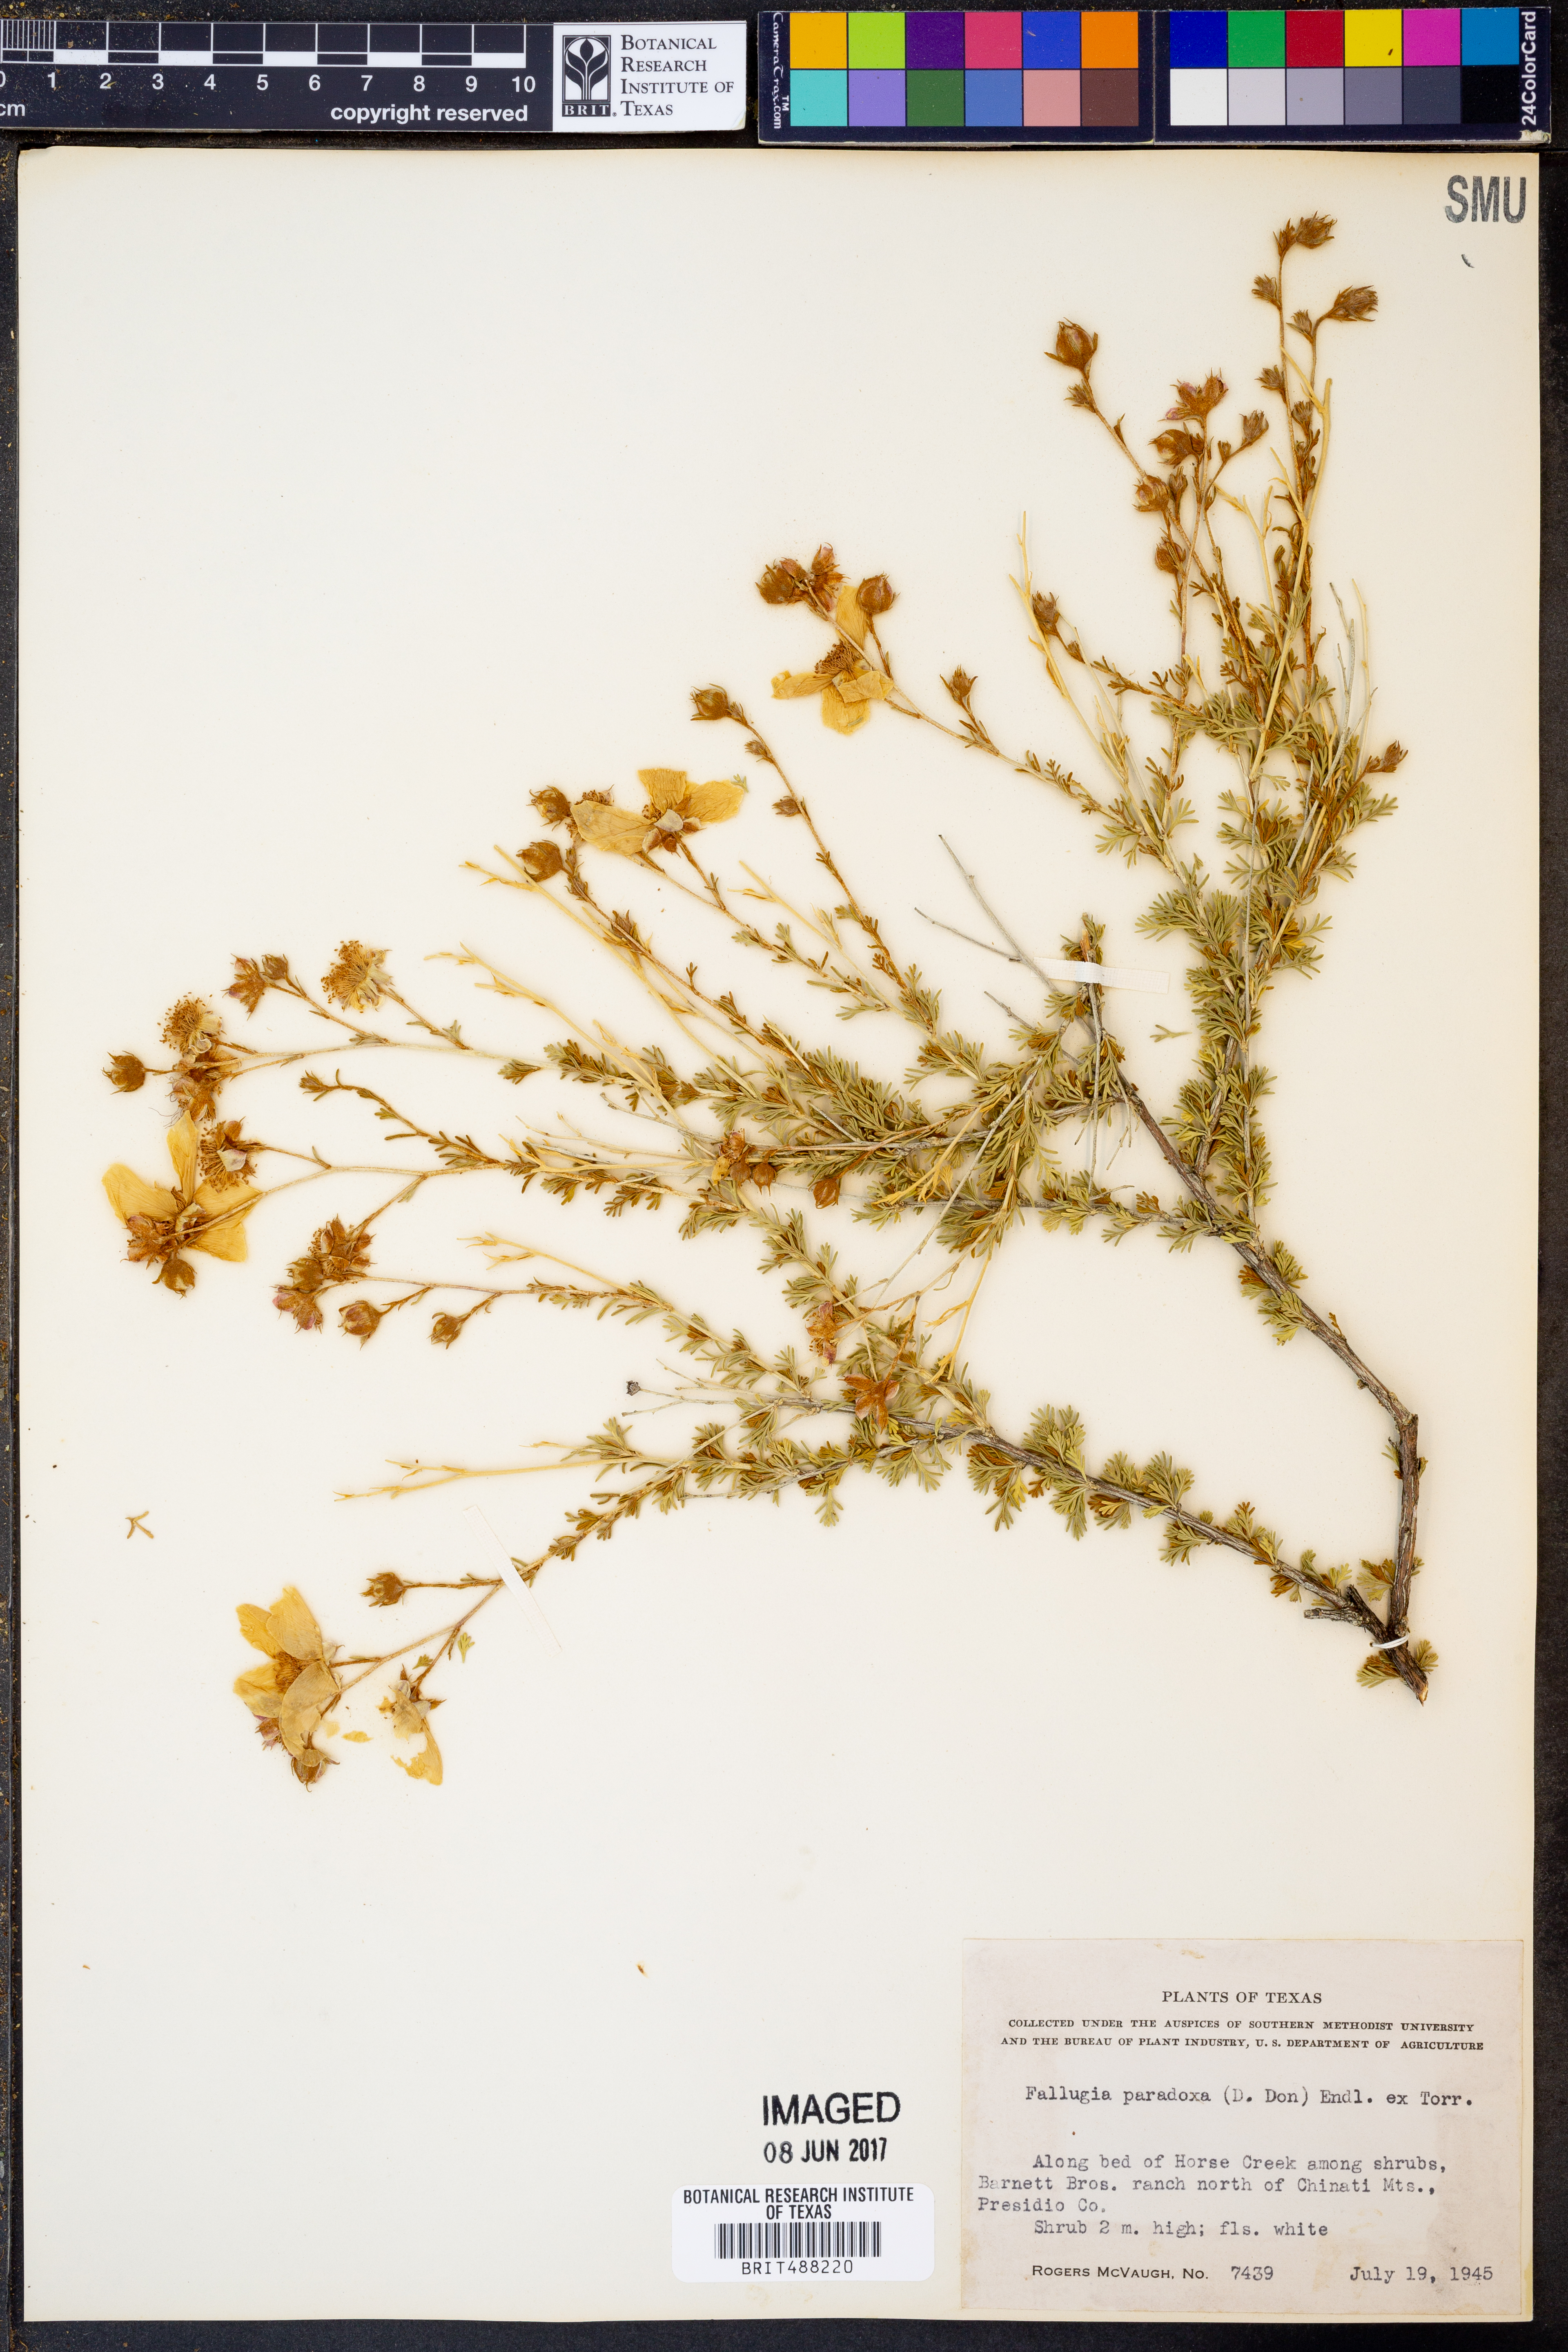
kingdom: Plantae
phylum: Tracheophyta
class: Magnoliopsida
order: Rosales
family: Rosaceae
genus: Fallugia
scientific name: Fallugia paradoxa
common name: Apache-plume
